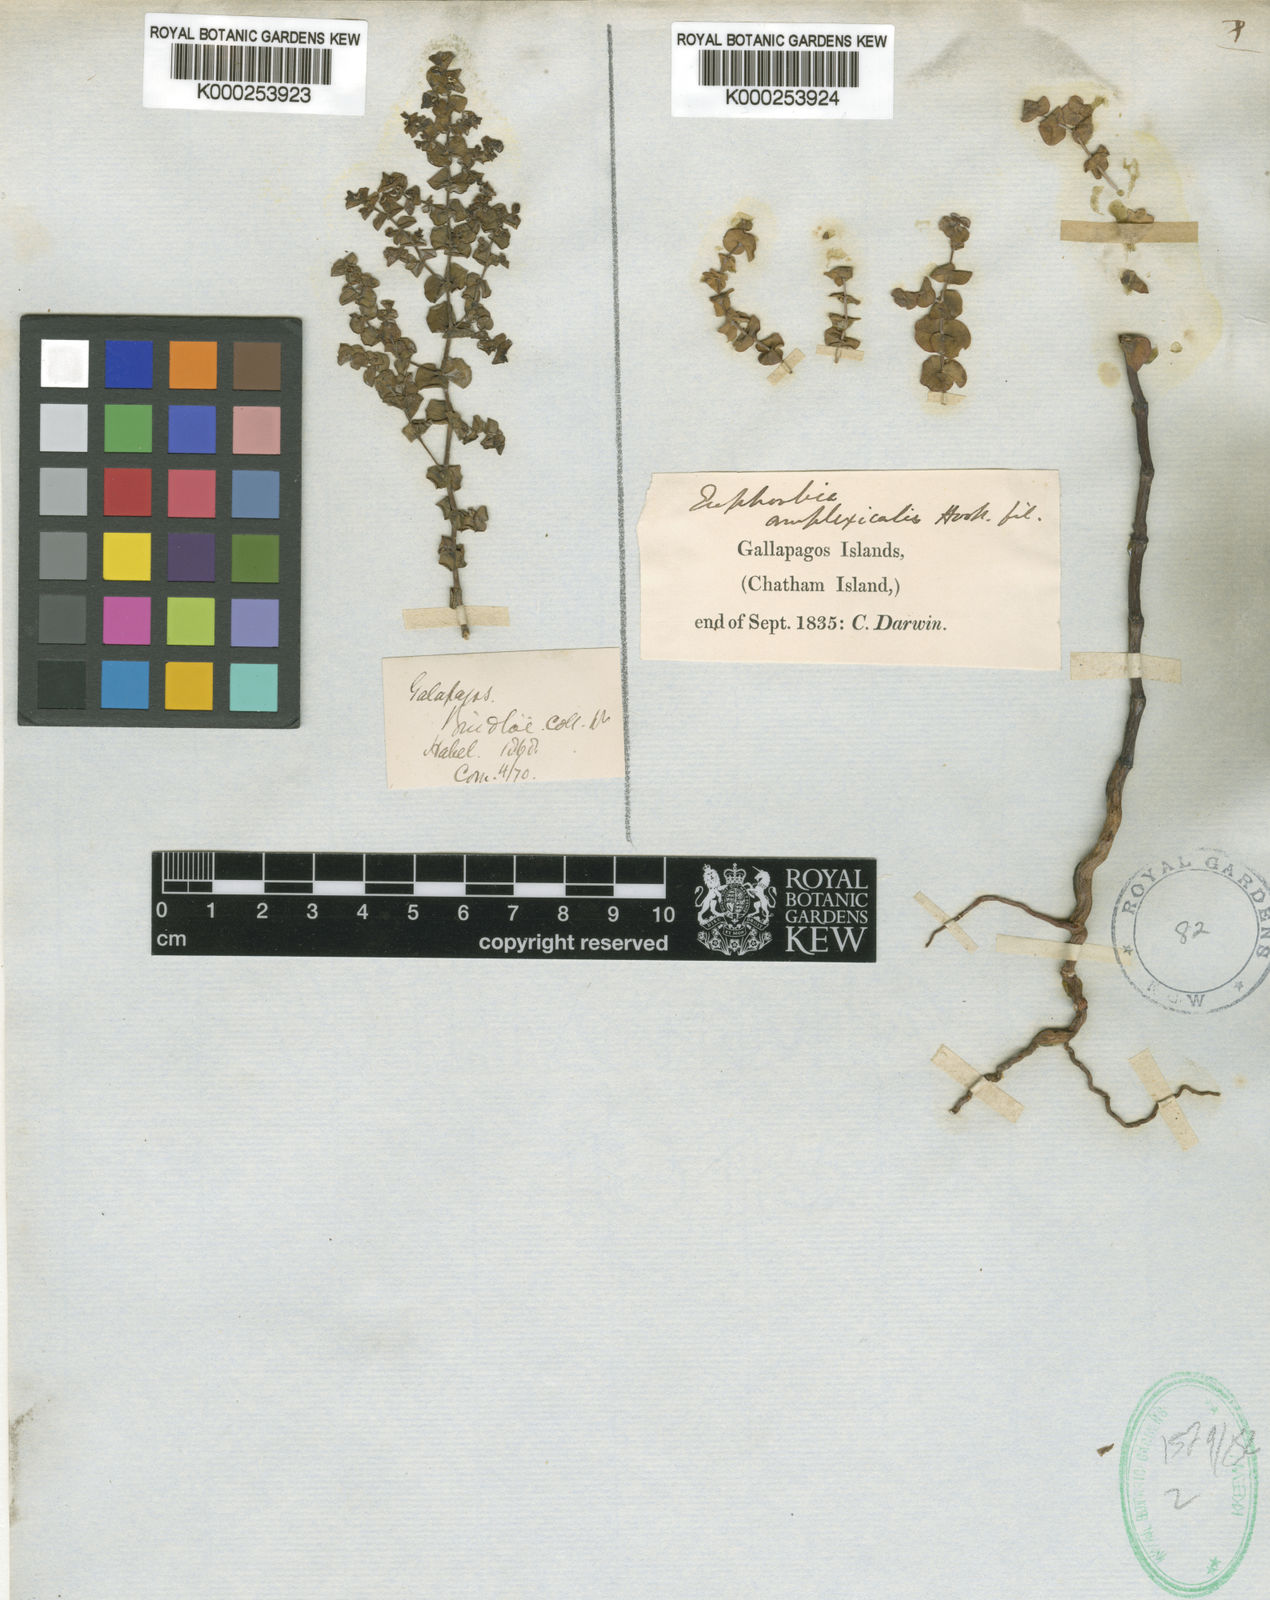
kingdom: Plantae
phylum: Tracheophyta
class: Magnoliopsida
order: Malpighiales
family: Euphorbiaceae
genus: Euphorbia
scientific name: Euphorbia amplexicaulis
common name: Chamaesyce
